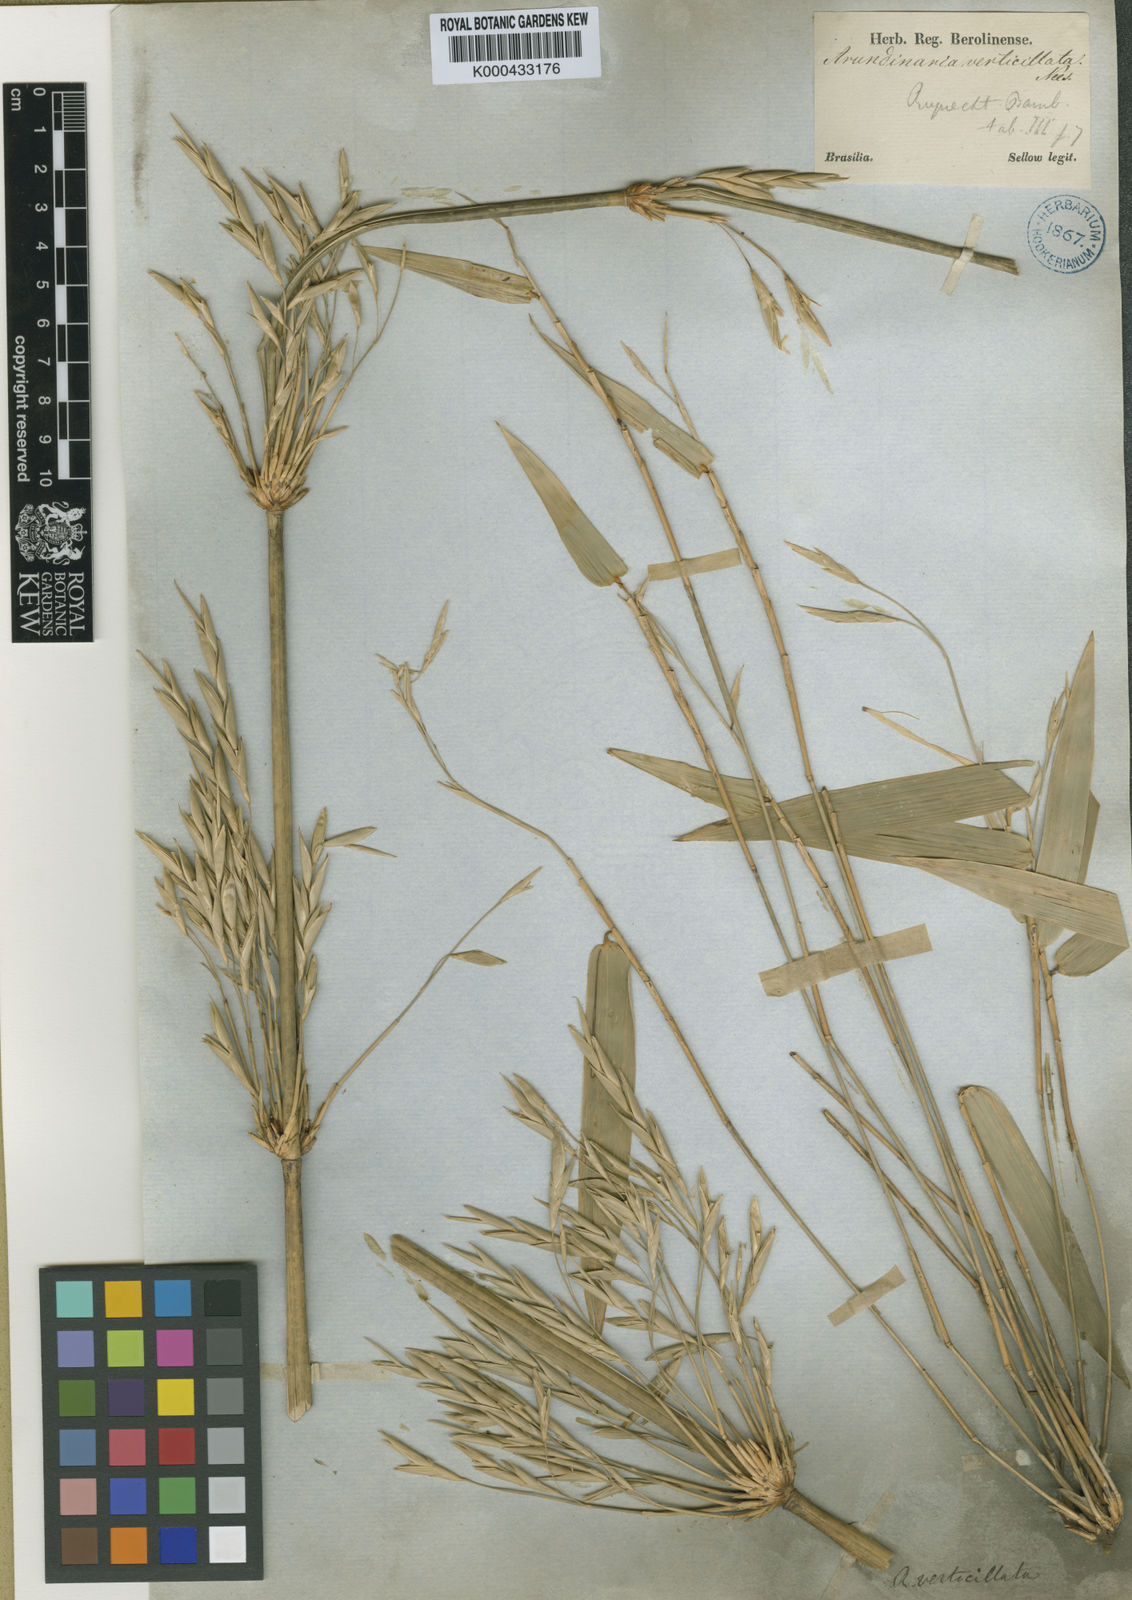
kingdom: Plantae
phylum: Tracheophyta
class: Liliopsida
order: Poales
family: Poaceae
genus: Actinocladum
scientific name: Actinocladum verticillatum
